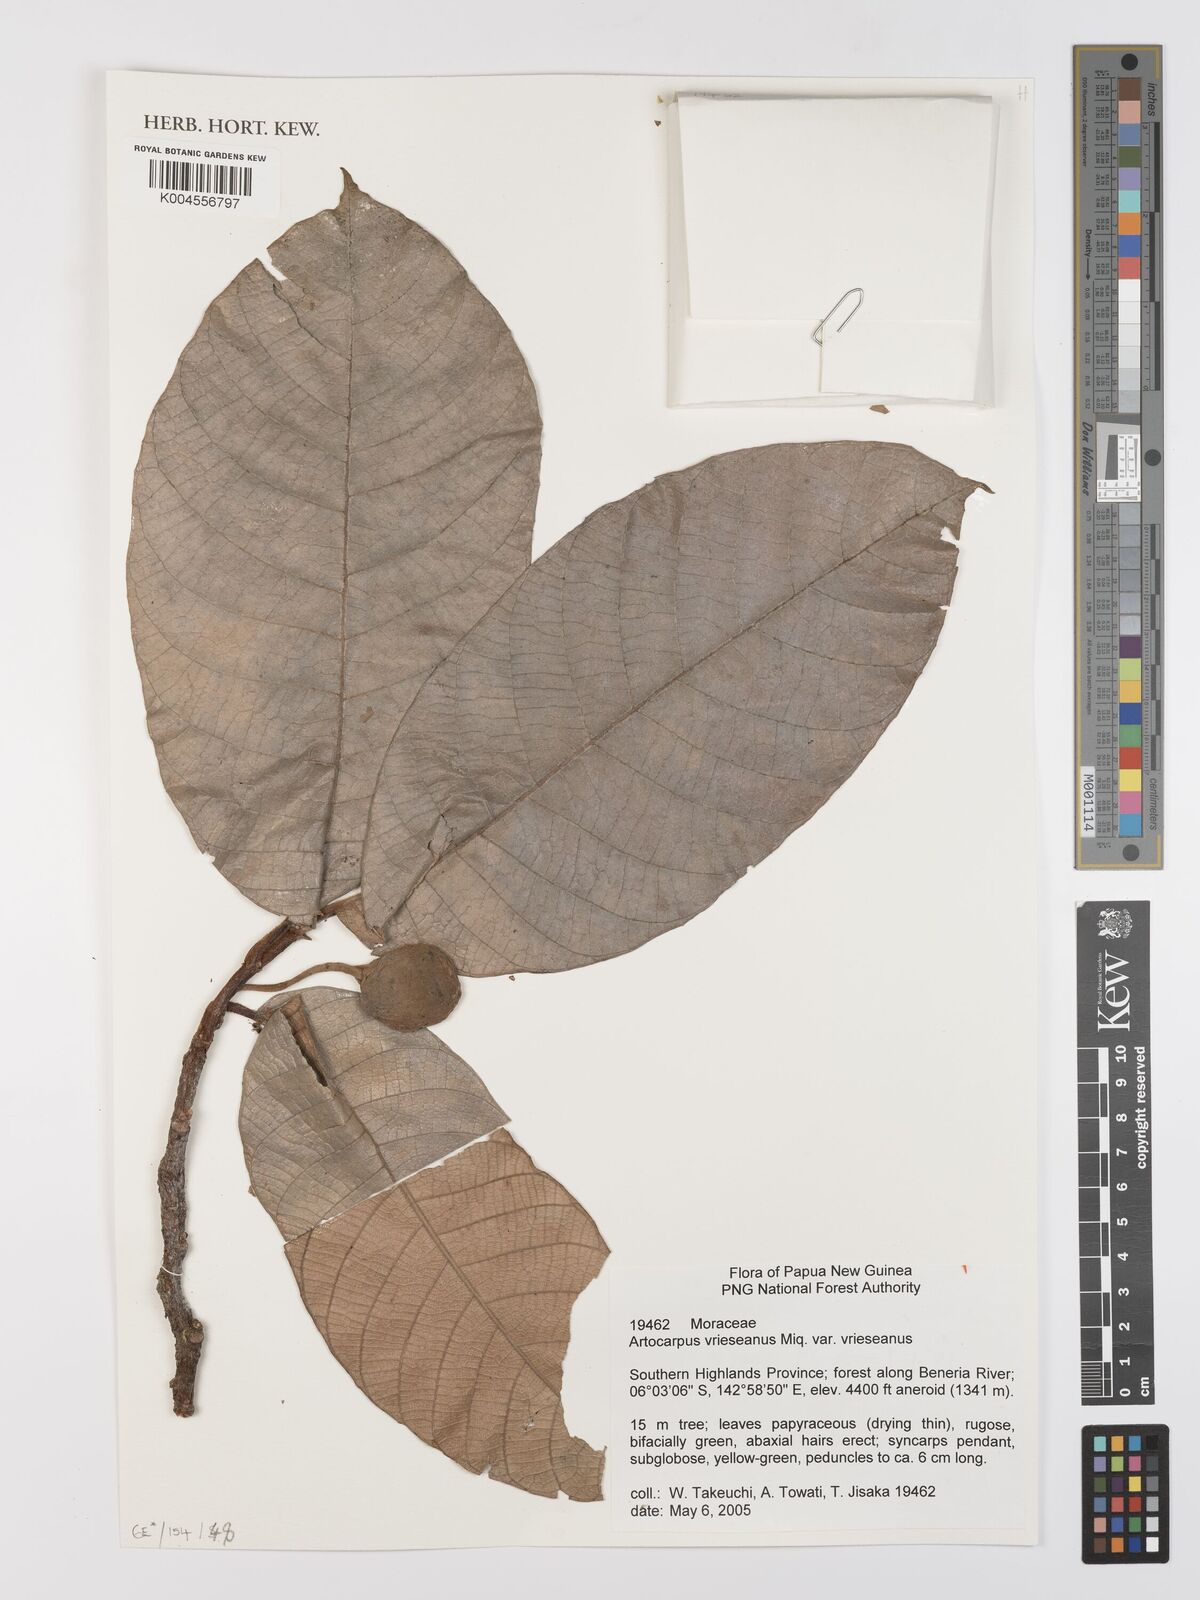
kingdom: Plantae
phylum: Tracheophyta
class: Magnoliopsida
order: Rosales
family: Moraceae
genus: Artocarpus
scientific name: Artocarpus vrieseanus
